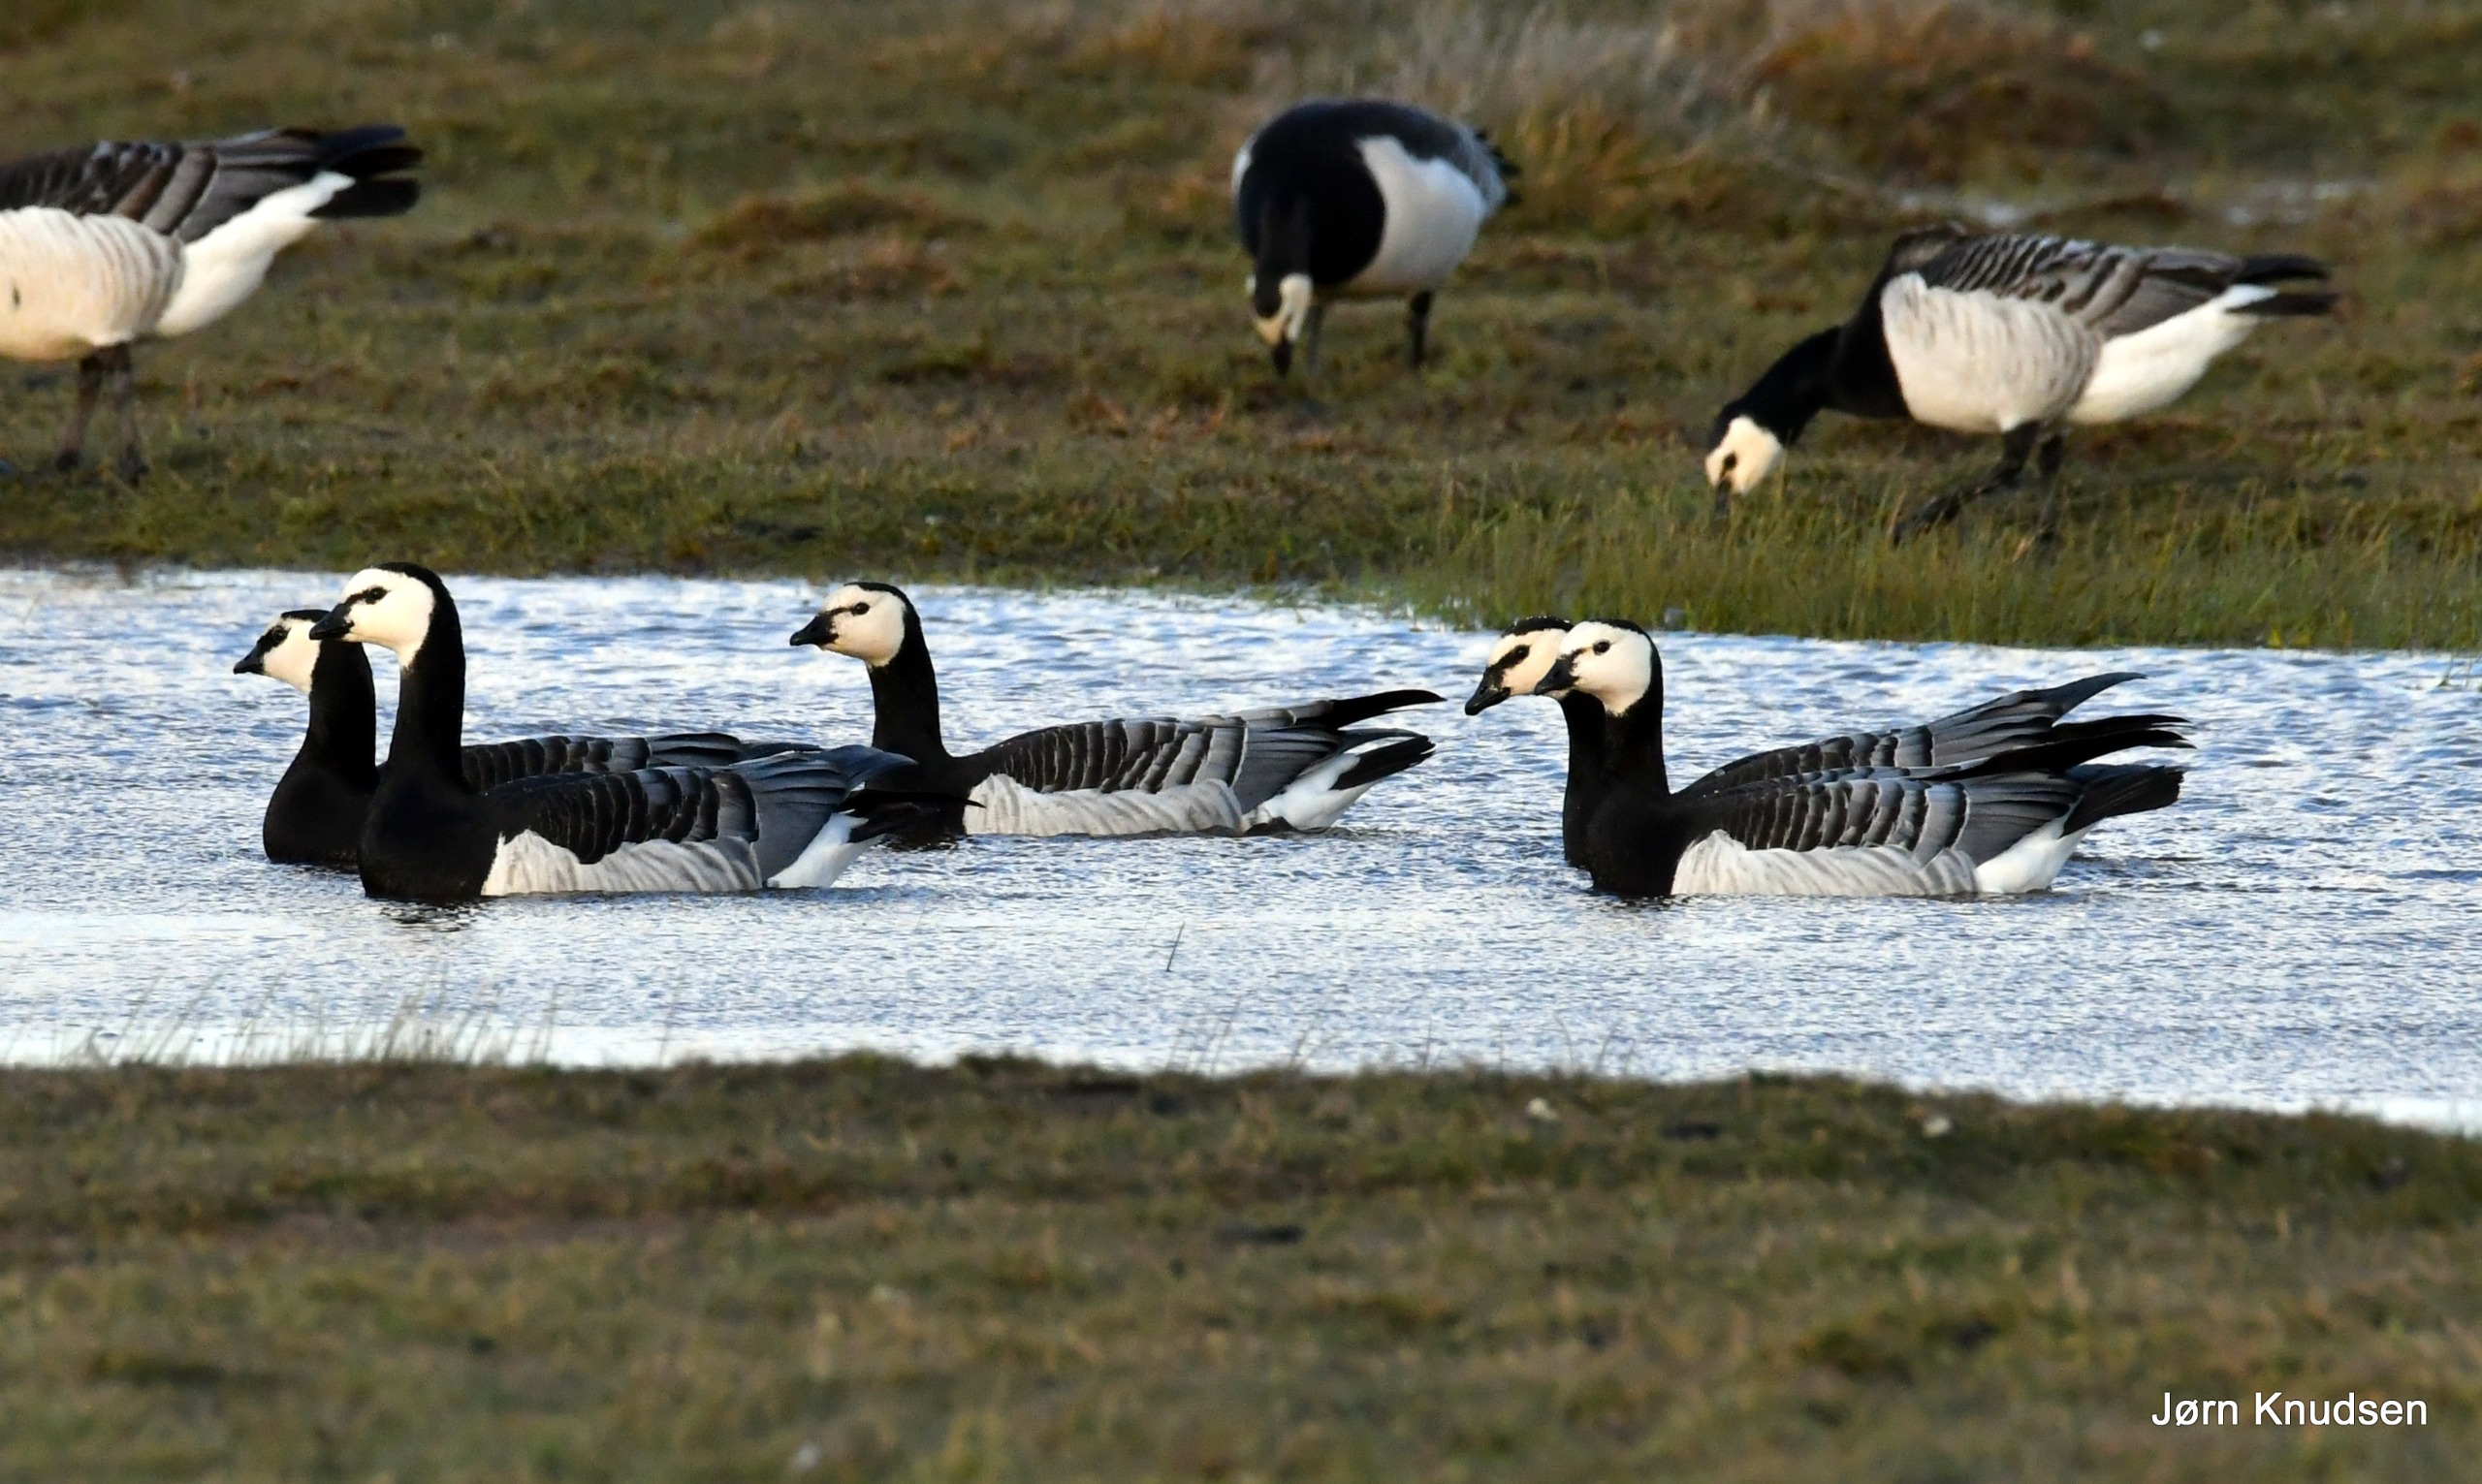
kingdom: Animalia
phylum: Chordata
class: Aves
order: Anseriformes
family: Anatidae
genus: Branta
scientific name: Branta leucopsis
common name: Bramgås
